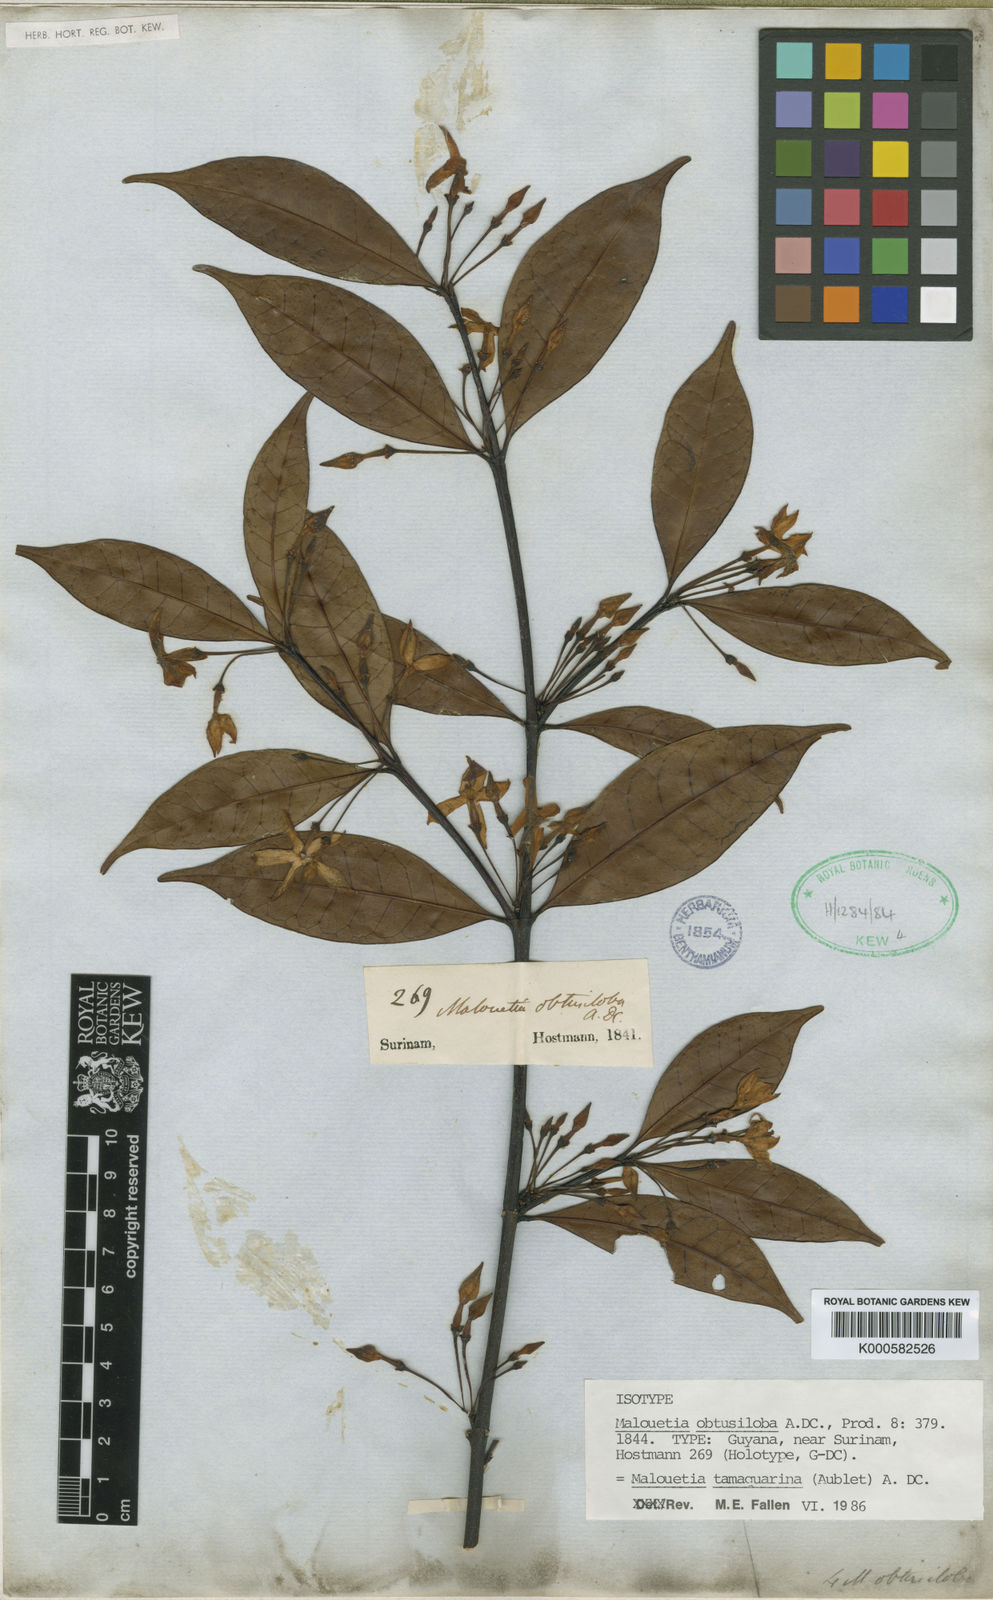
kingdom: Plantae
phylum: Tracheophyta
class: Magnoliopsida
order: Gentianales
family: Apocynaceae
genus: Malouetia
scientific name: Malouetia tamaquarina
